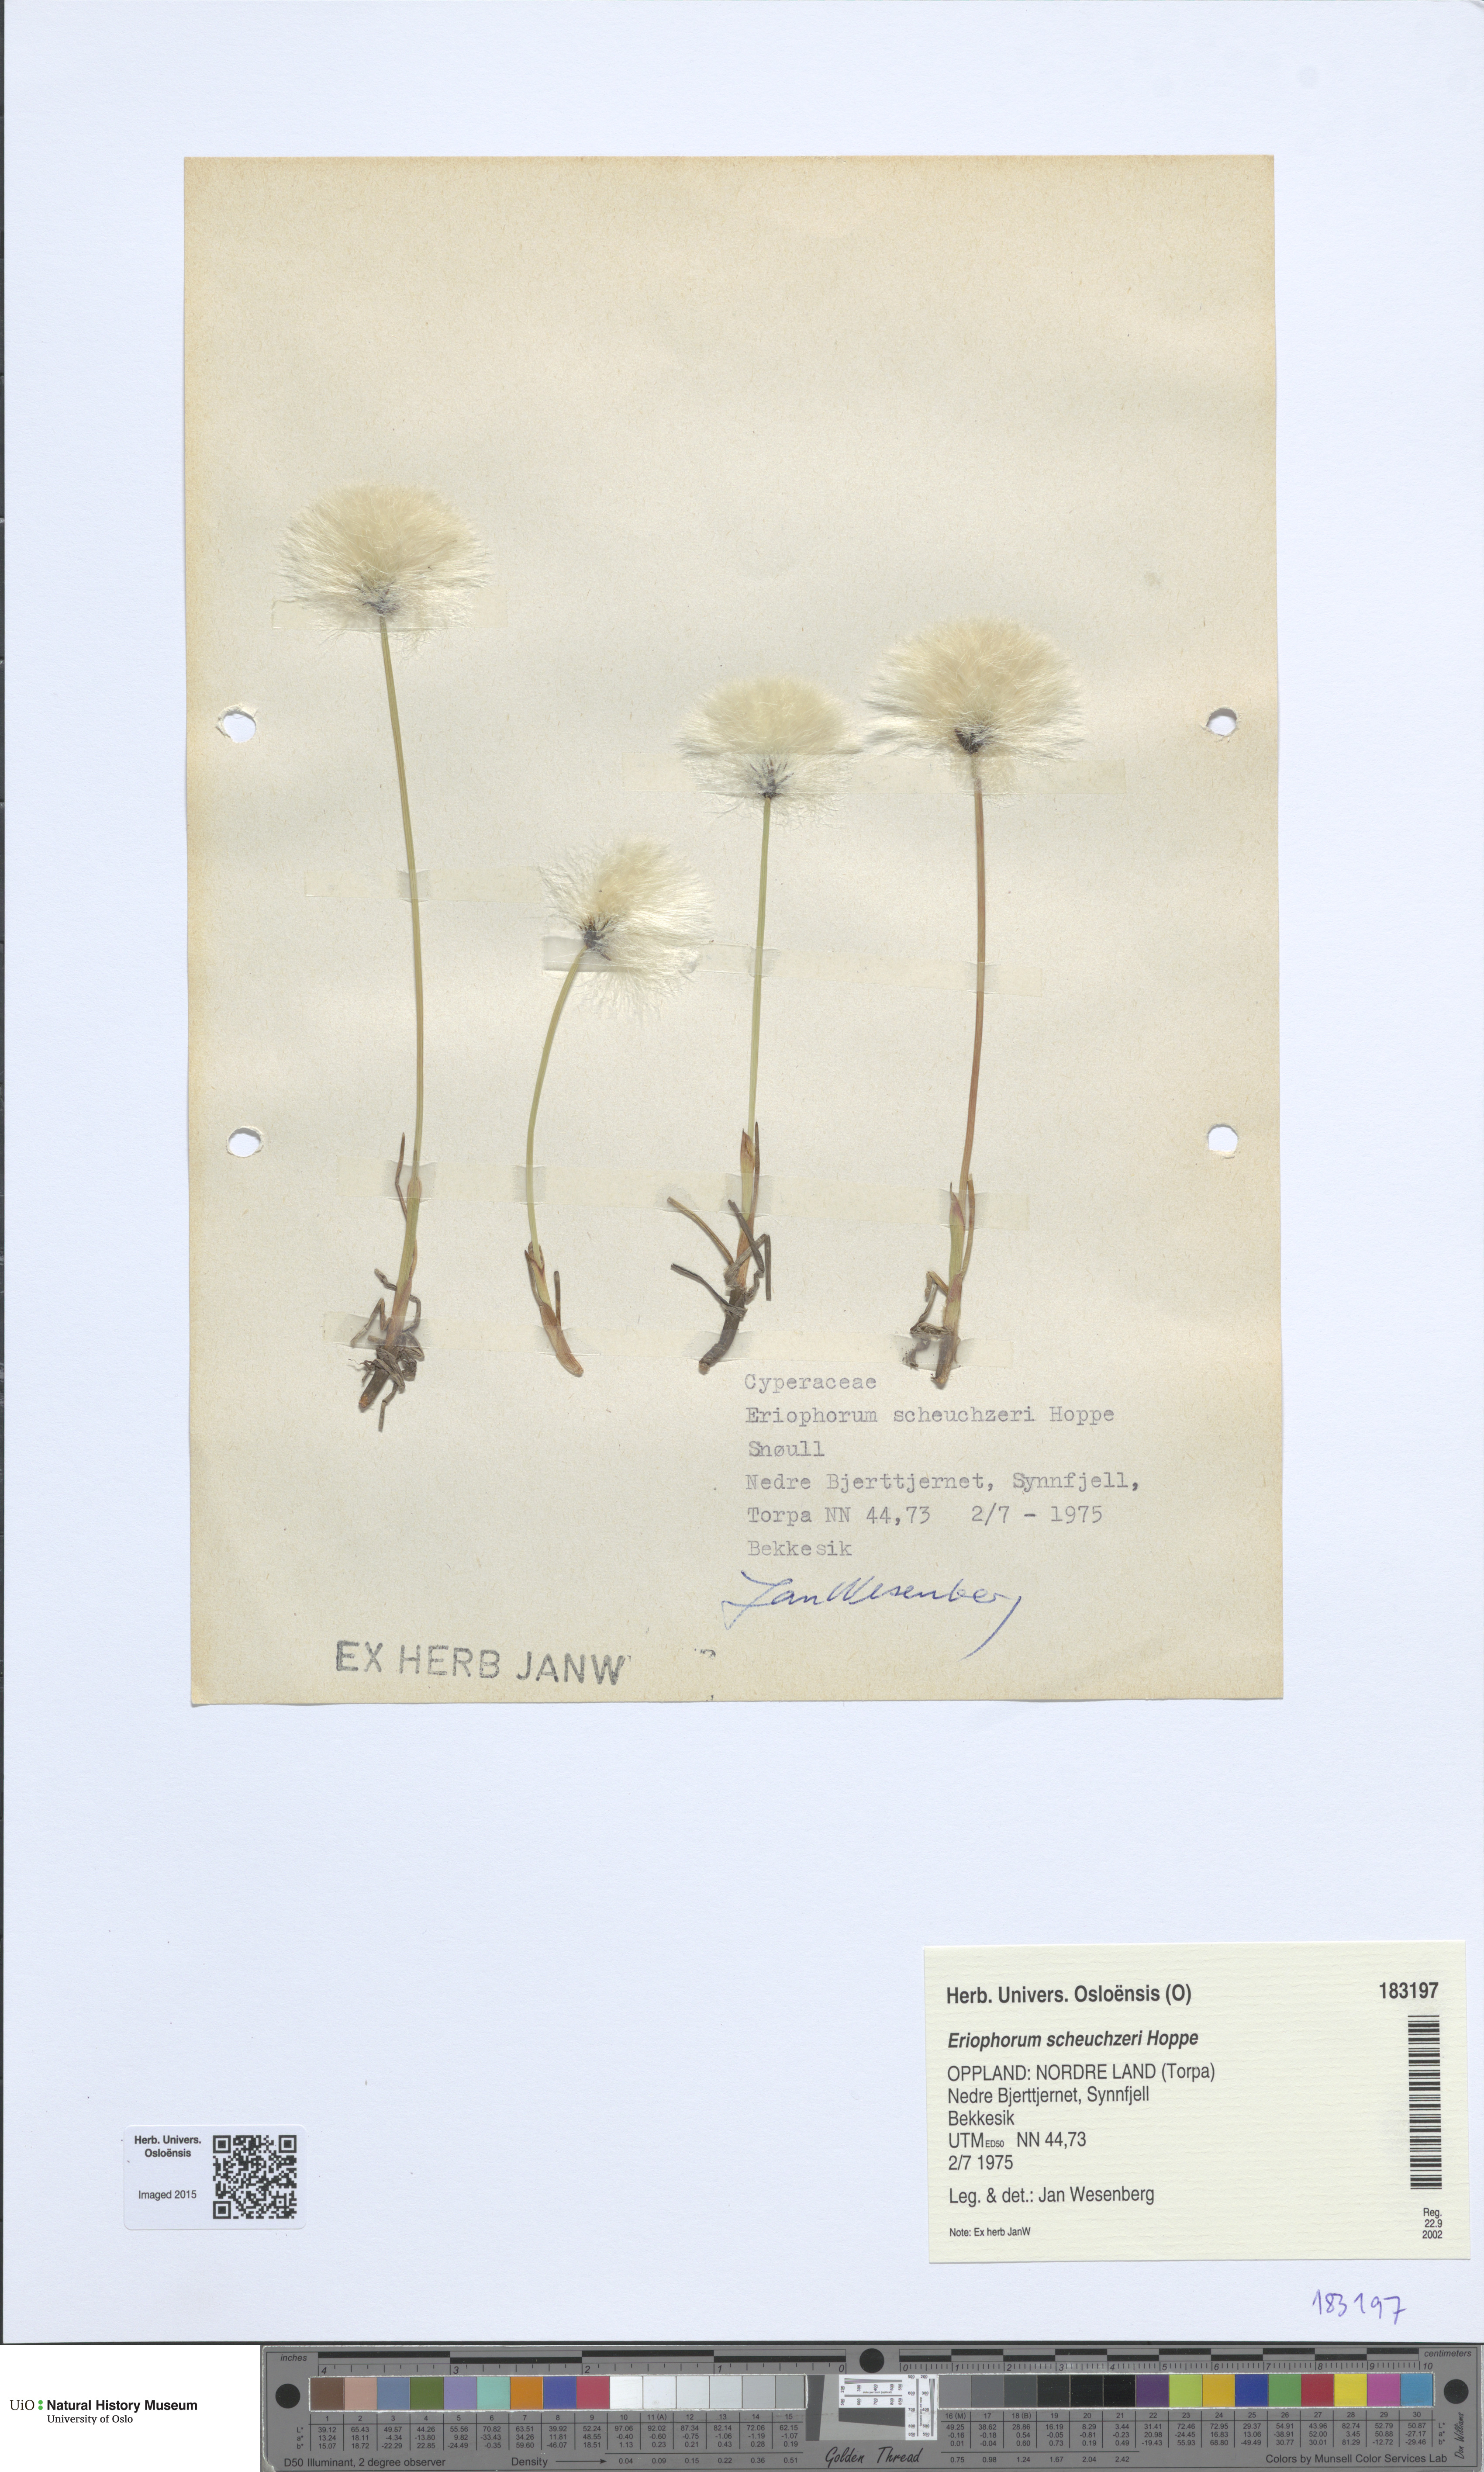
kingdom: Plantae
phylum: Tracheophyta
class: Liliopsida
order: Poales
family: Cyperaceae
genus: Eriophorum
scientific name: Eriophorum scheuchzeri
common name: Scheuchzer's cottongrass
